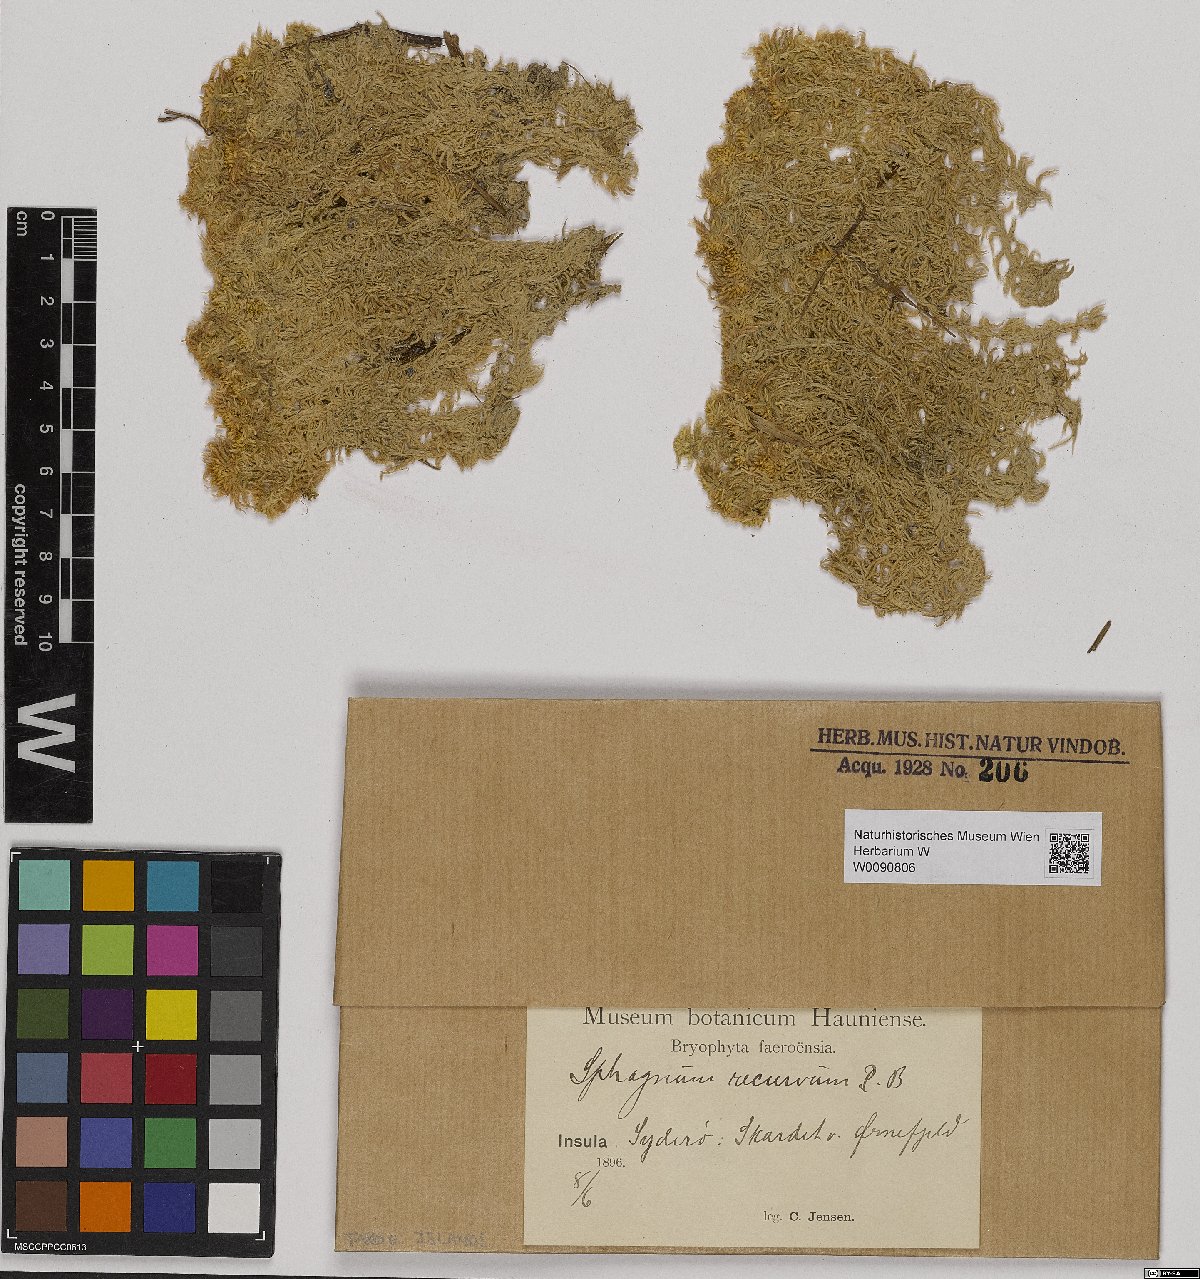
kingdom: Plantae
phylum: Bryophyta
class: Sphagnopsida
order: Sphagnales
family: Sphagnaceae
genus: Sphagnum
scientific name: Sphagnum recurvum
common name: Recurved peatmoss
